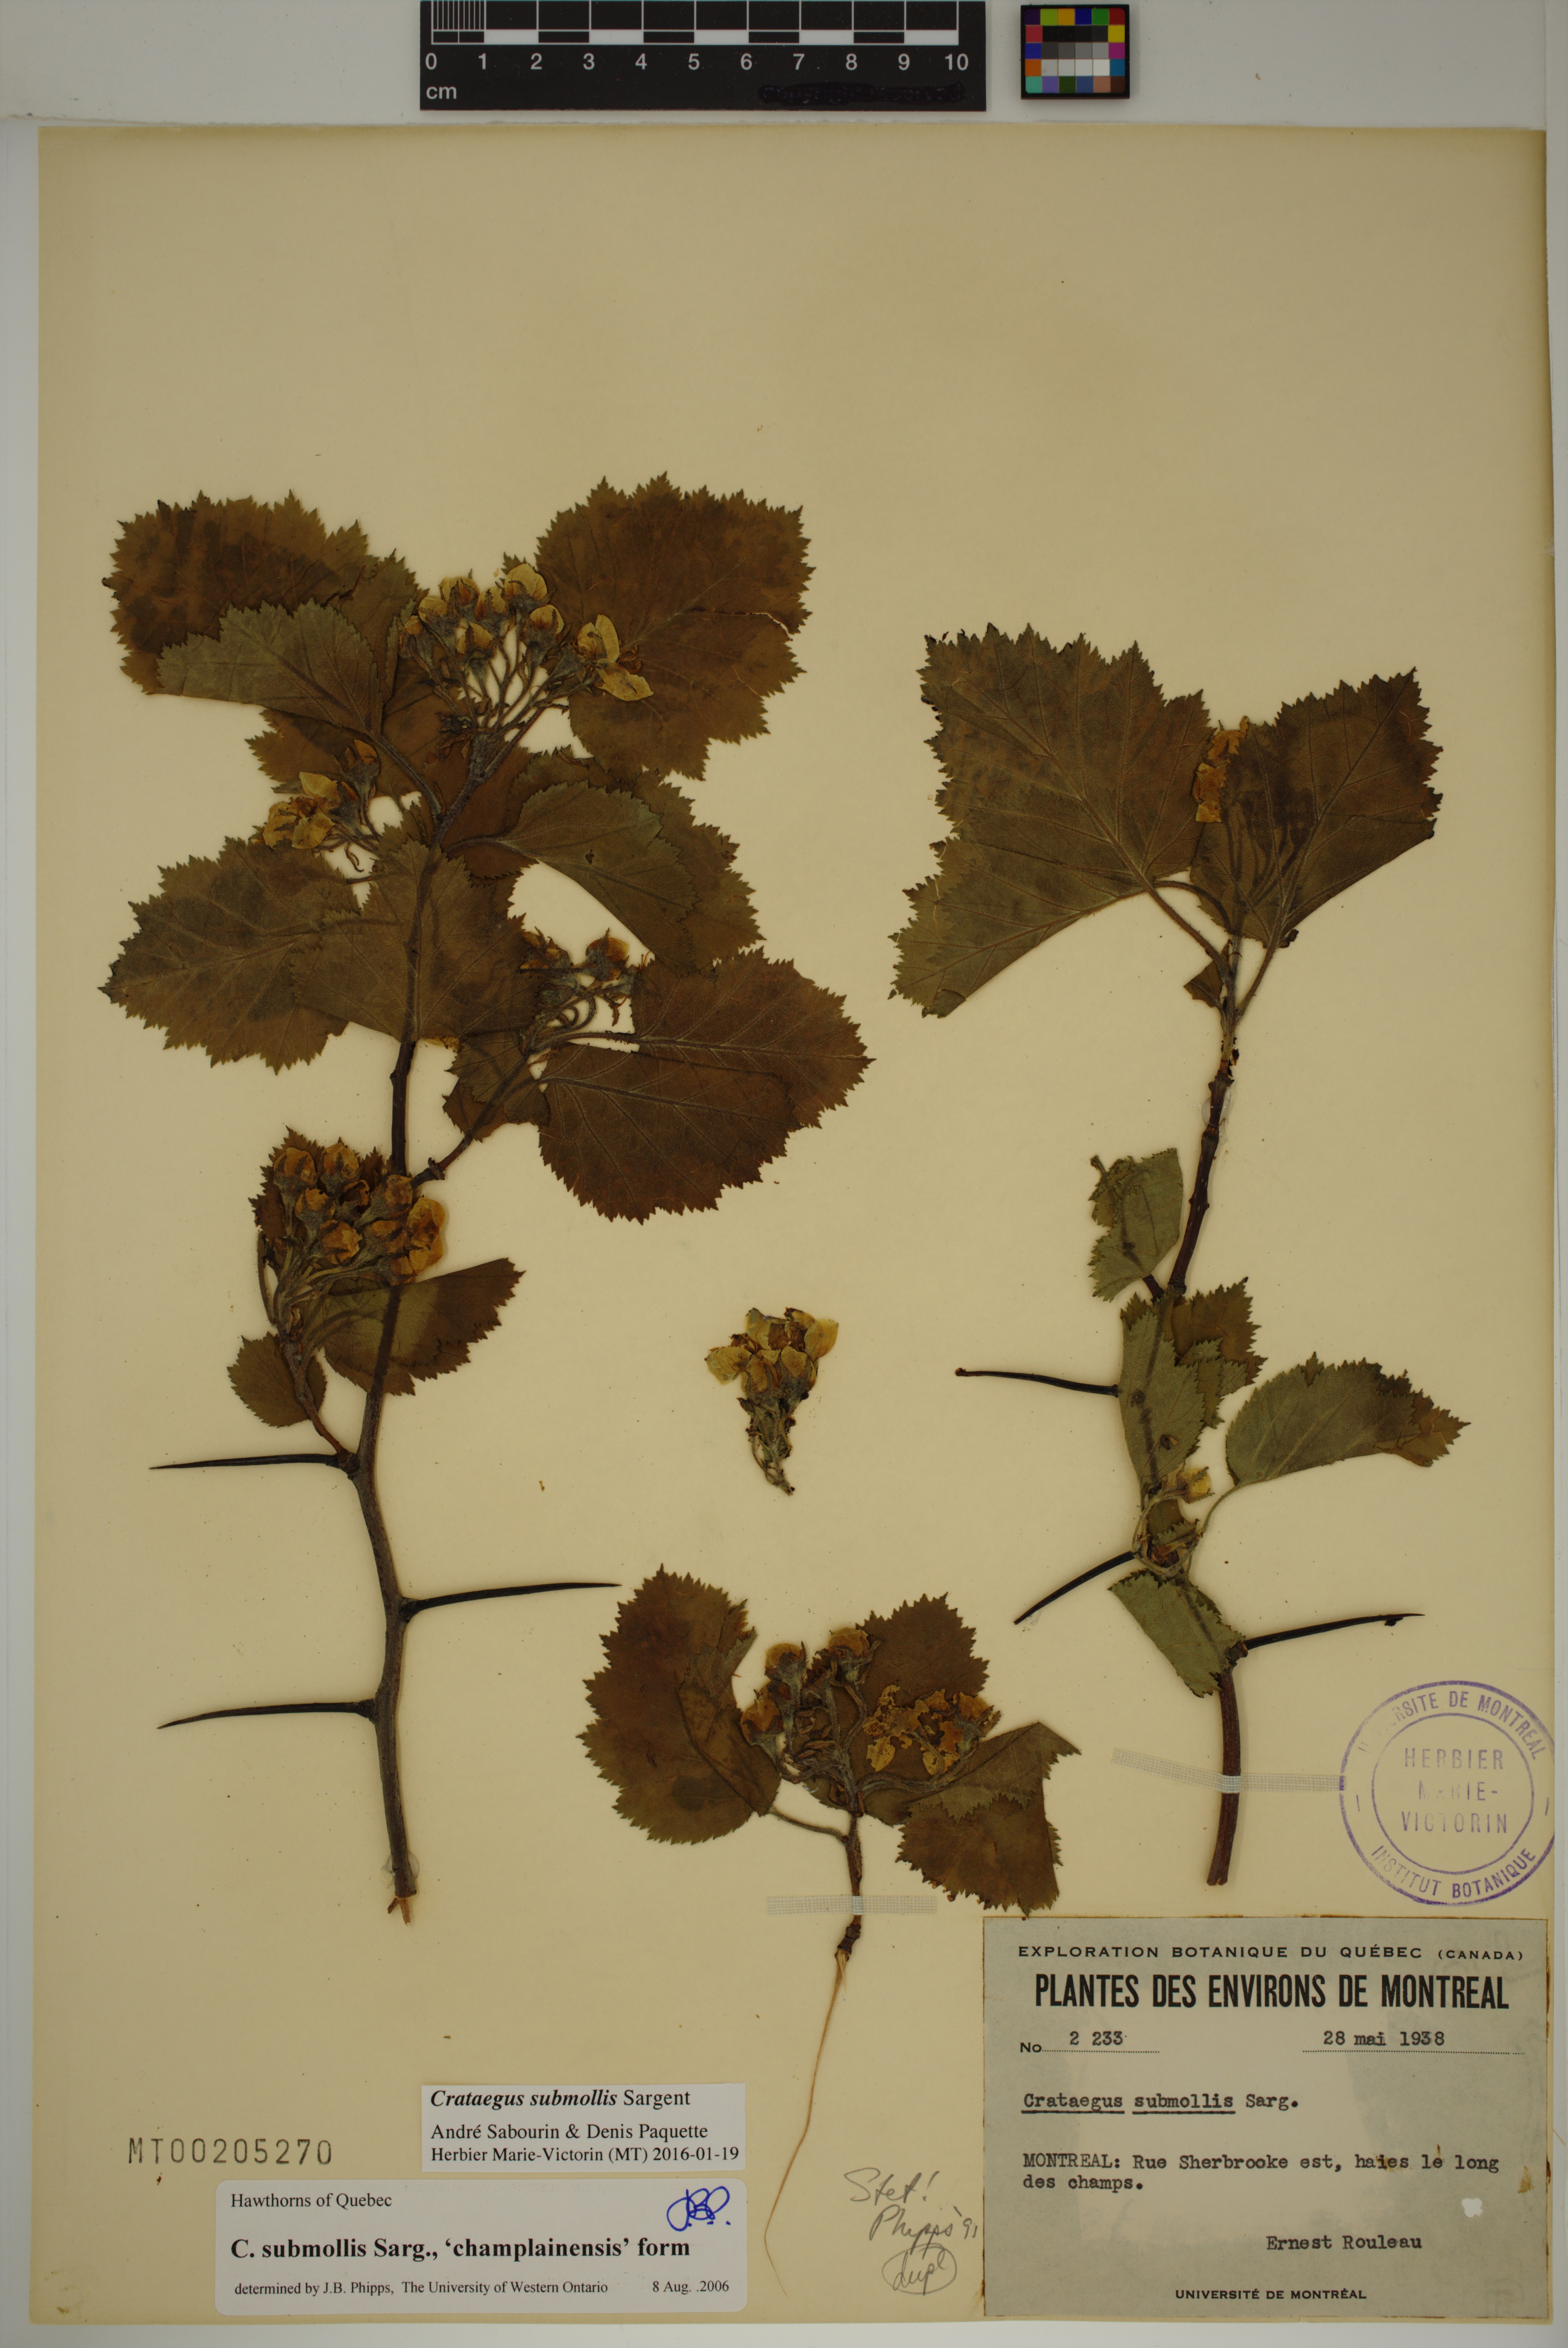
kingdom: Plantae
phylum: Tracheophyta
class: Magnoliopsida
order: Rosales
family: Rosaceae
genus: Crataegus
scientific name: Crataegus submollis
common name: Hairy cockspurthorn
